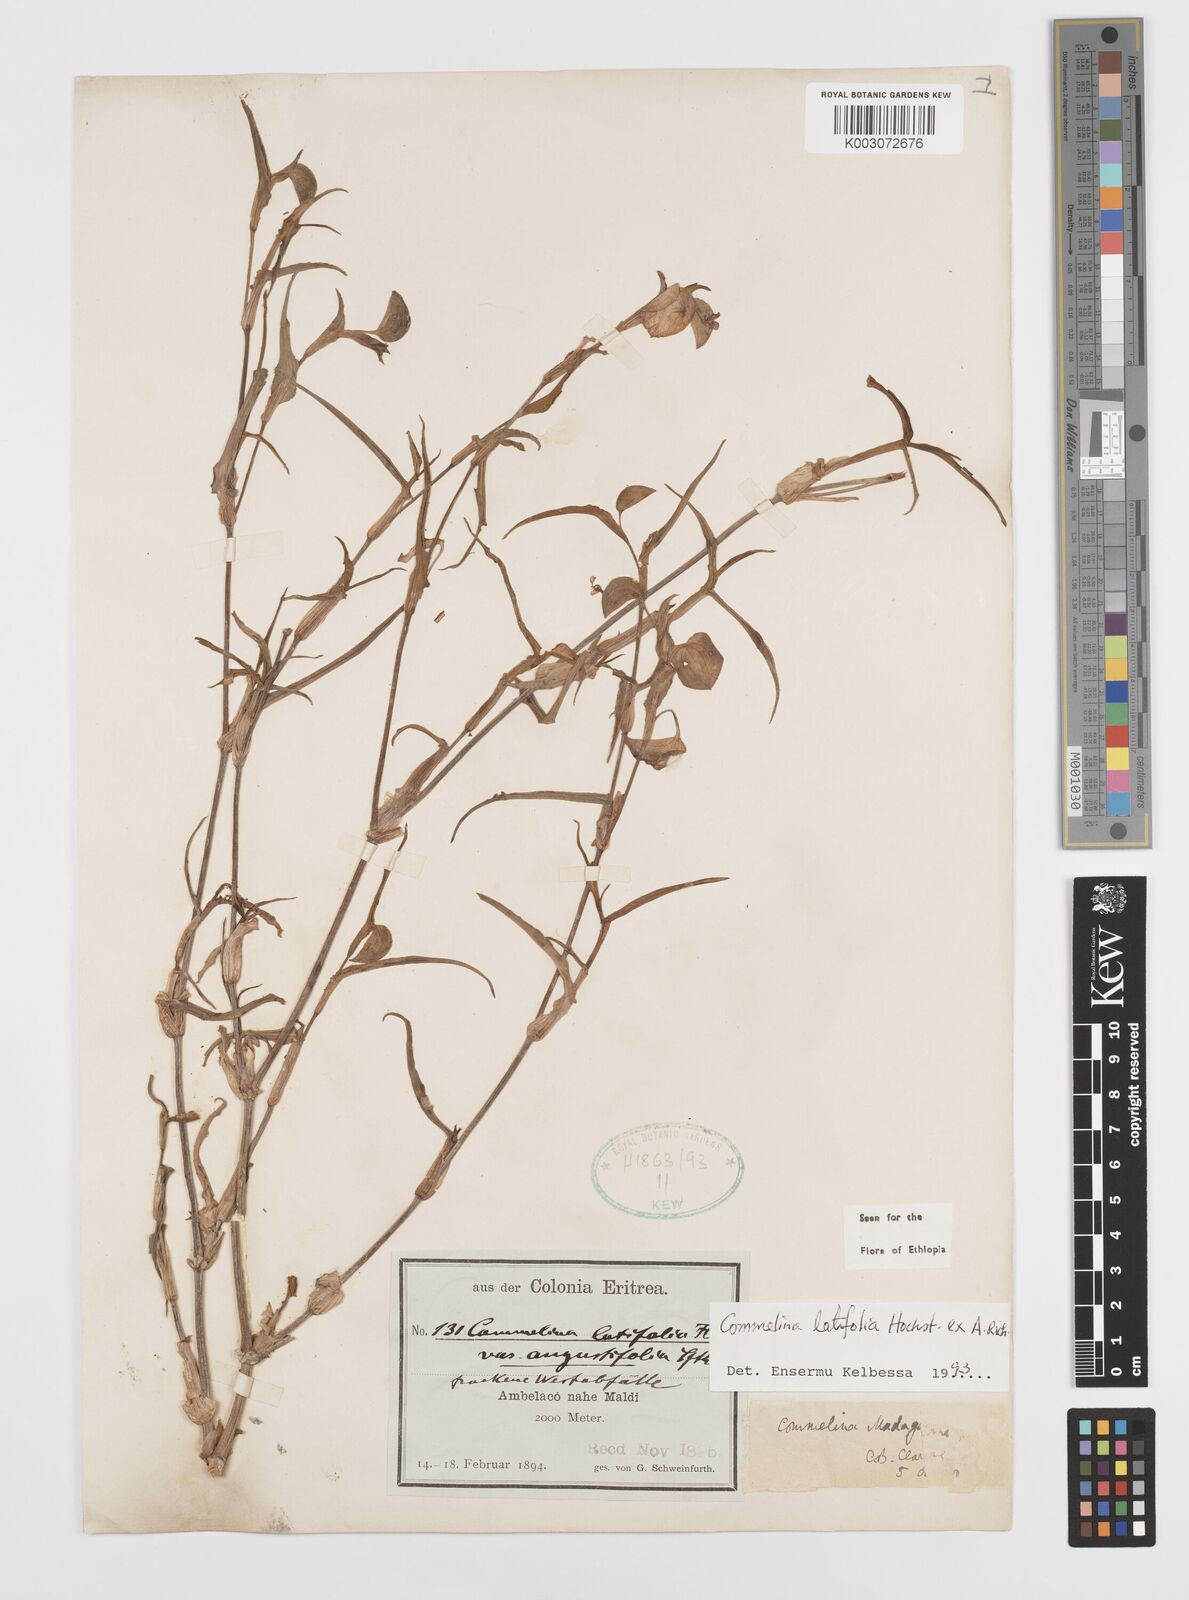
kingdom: Plantae
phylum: Tracheophyta
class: Liliopsida
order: Commelinales
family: Commelinaceae
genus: Commelina
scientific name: Commelina imberbis
